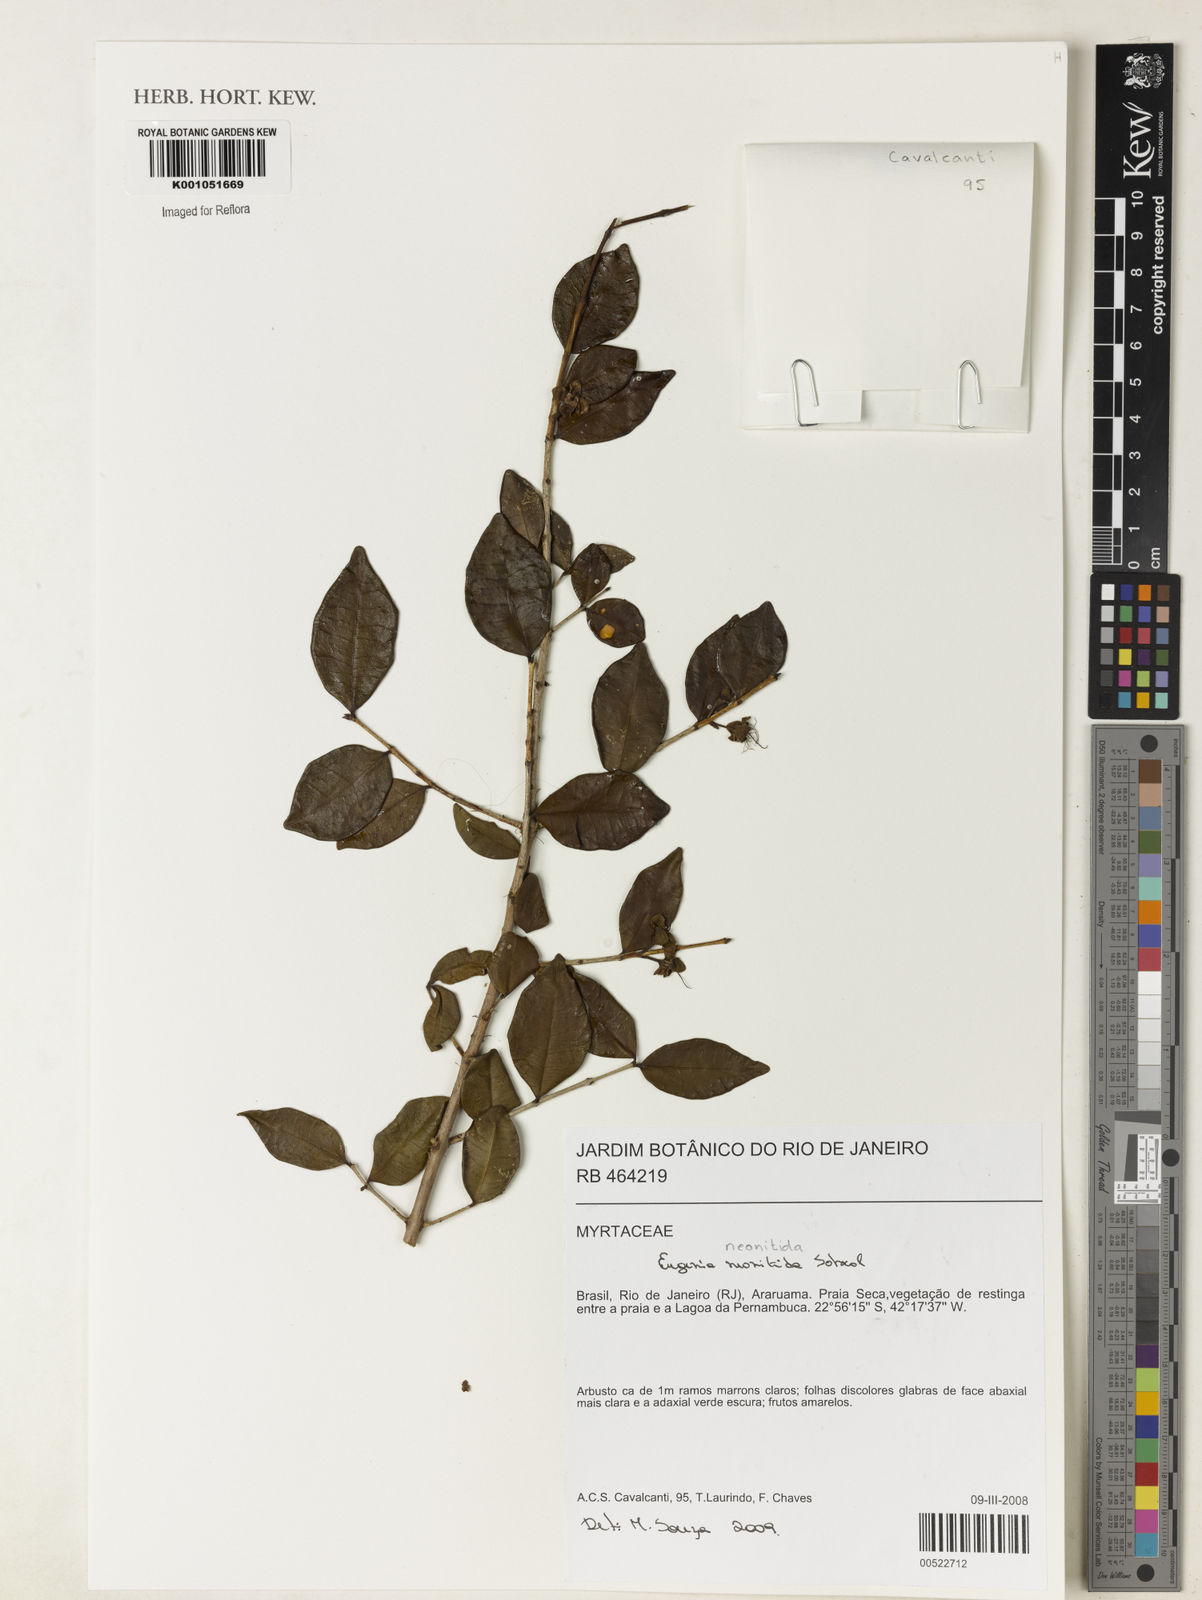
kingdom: Plantae
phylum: Tracheophyta
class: Magnoliopsida
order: Myrtales
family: Myrtaceae
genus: Eugenia
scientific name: Eugenia selloi
